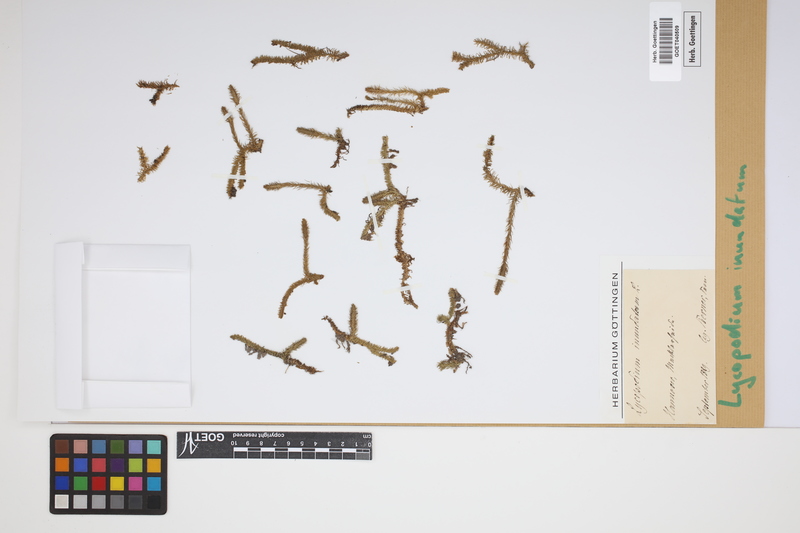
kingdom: Plantae
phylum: Tracheophyta
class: Lycopodiopsida
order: Lycopodiales
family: Lycopodiaceae
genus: Lycopodiella
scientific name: Lycopodiella inundata
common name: Marsh clubmoss
